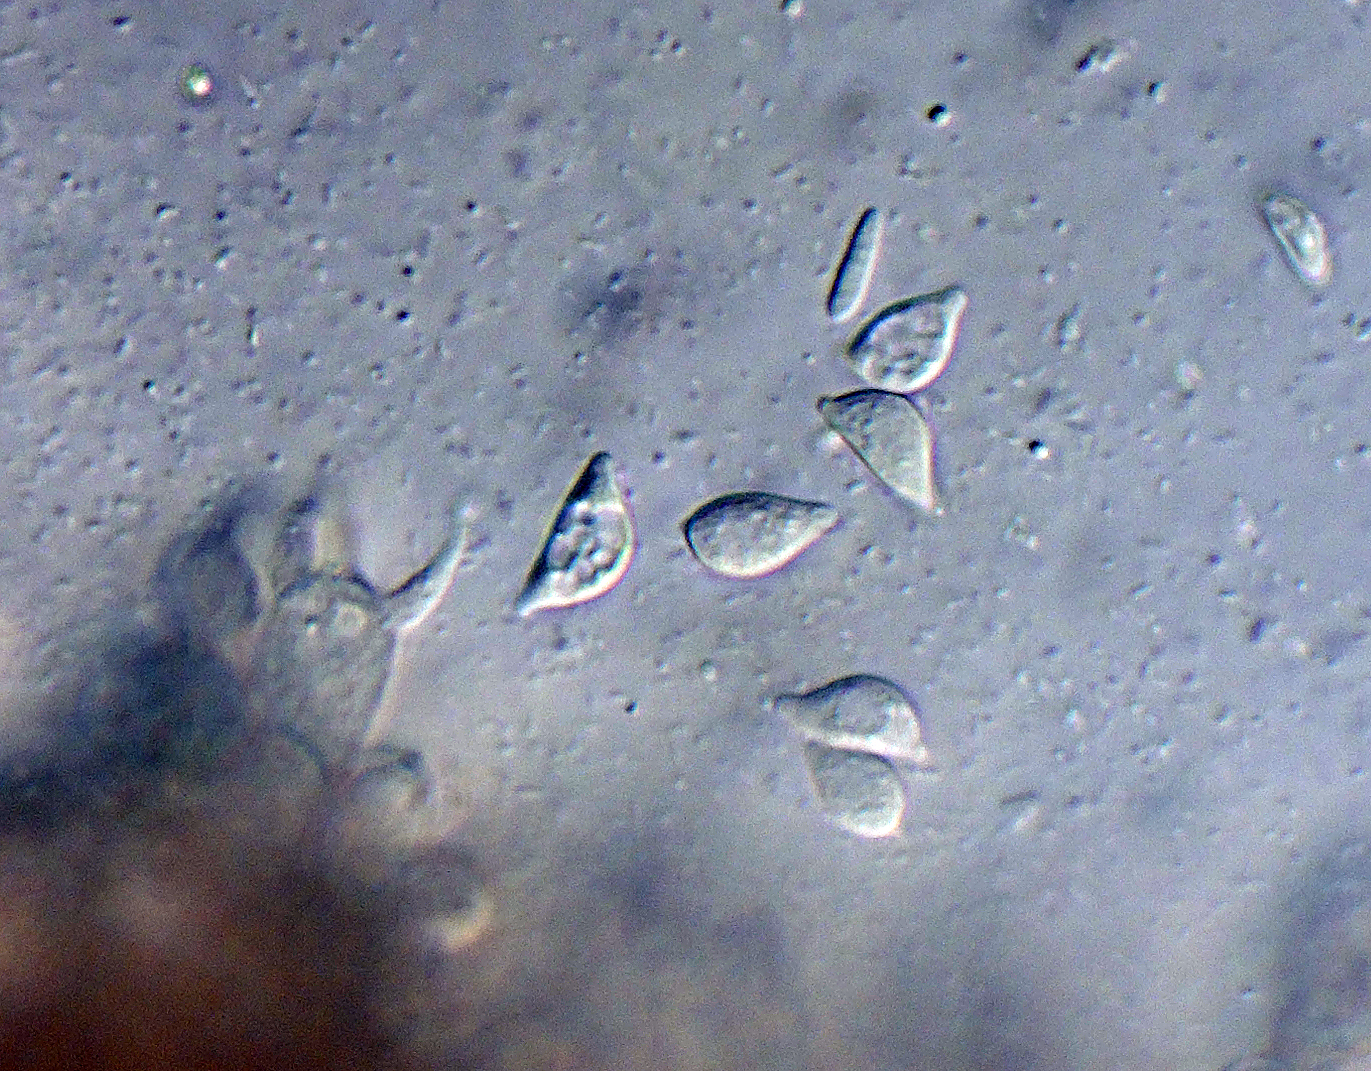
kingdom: Fungi
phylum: Basidiomycota
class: Agaricomycetes
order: Cantharellales
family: Ceratobasidiaceae
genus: Rhizoctonia
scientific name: Rhizoctonia fusispora
